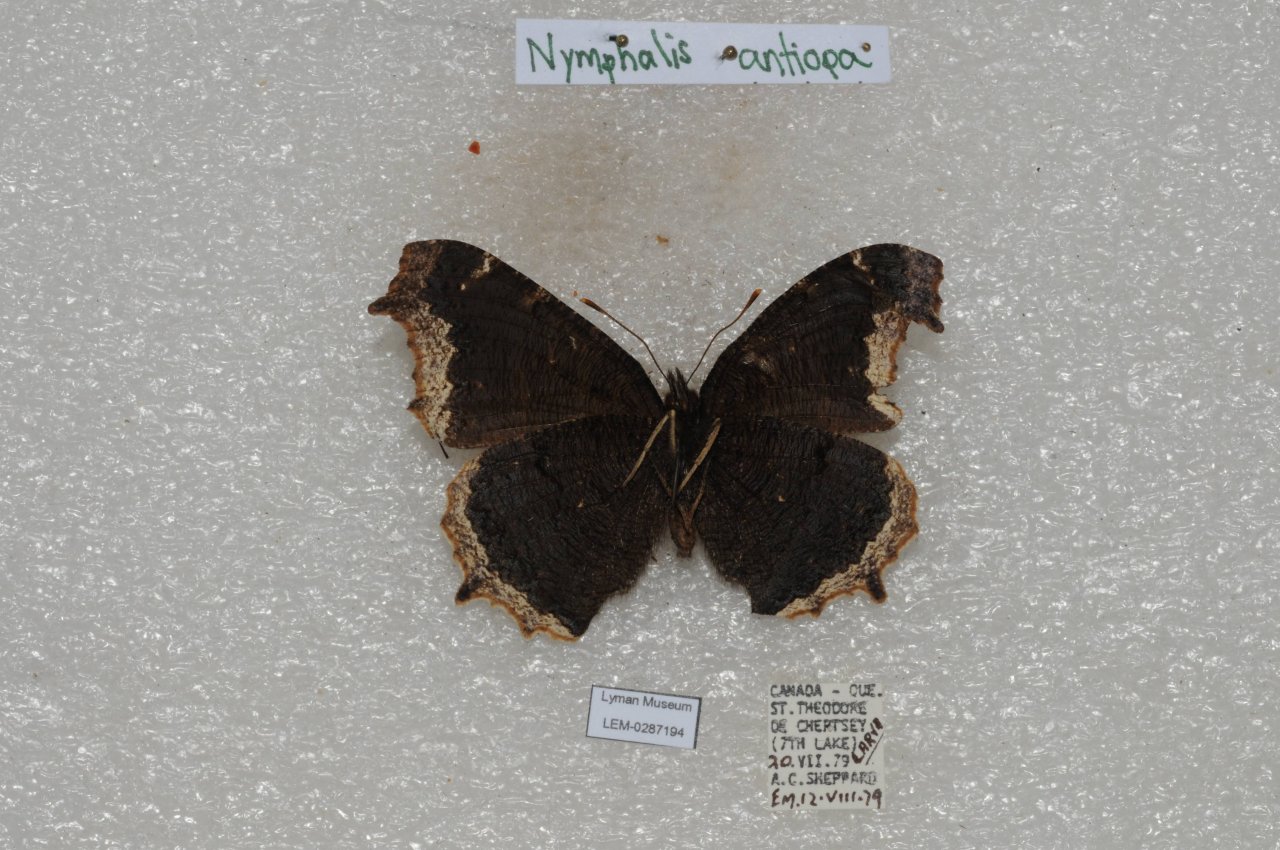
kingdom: Animalia
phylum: Arthropoda
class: Insecta
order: Lepidoptera
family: Nymphalidae
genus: Nymphalis
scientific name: Nymphalis antiopa
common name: Mourning Cloak
